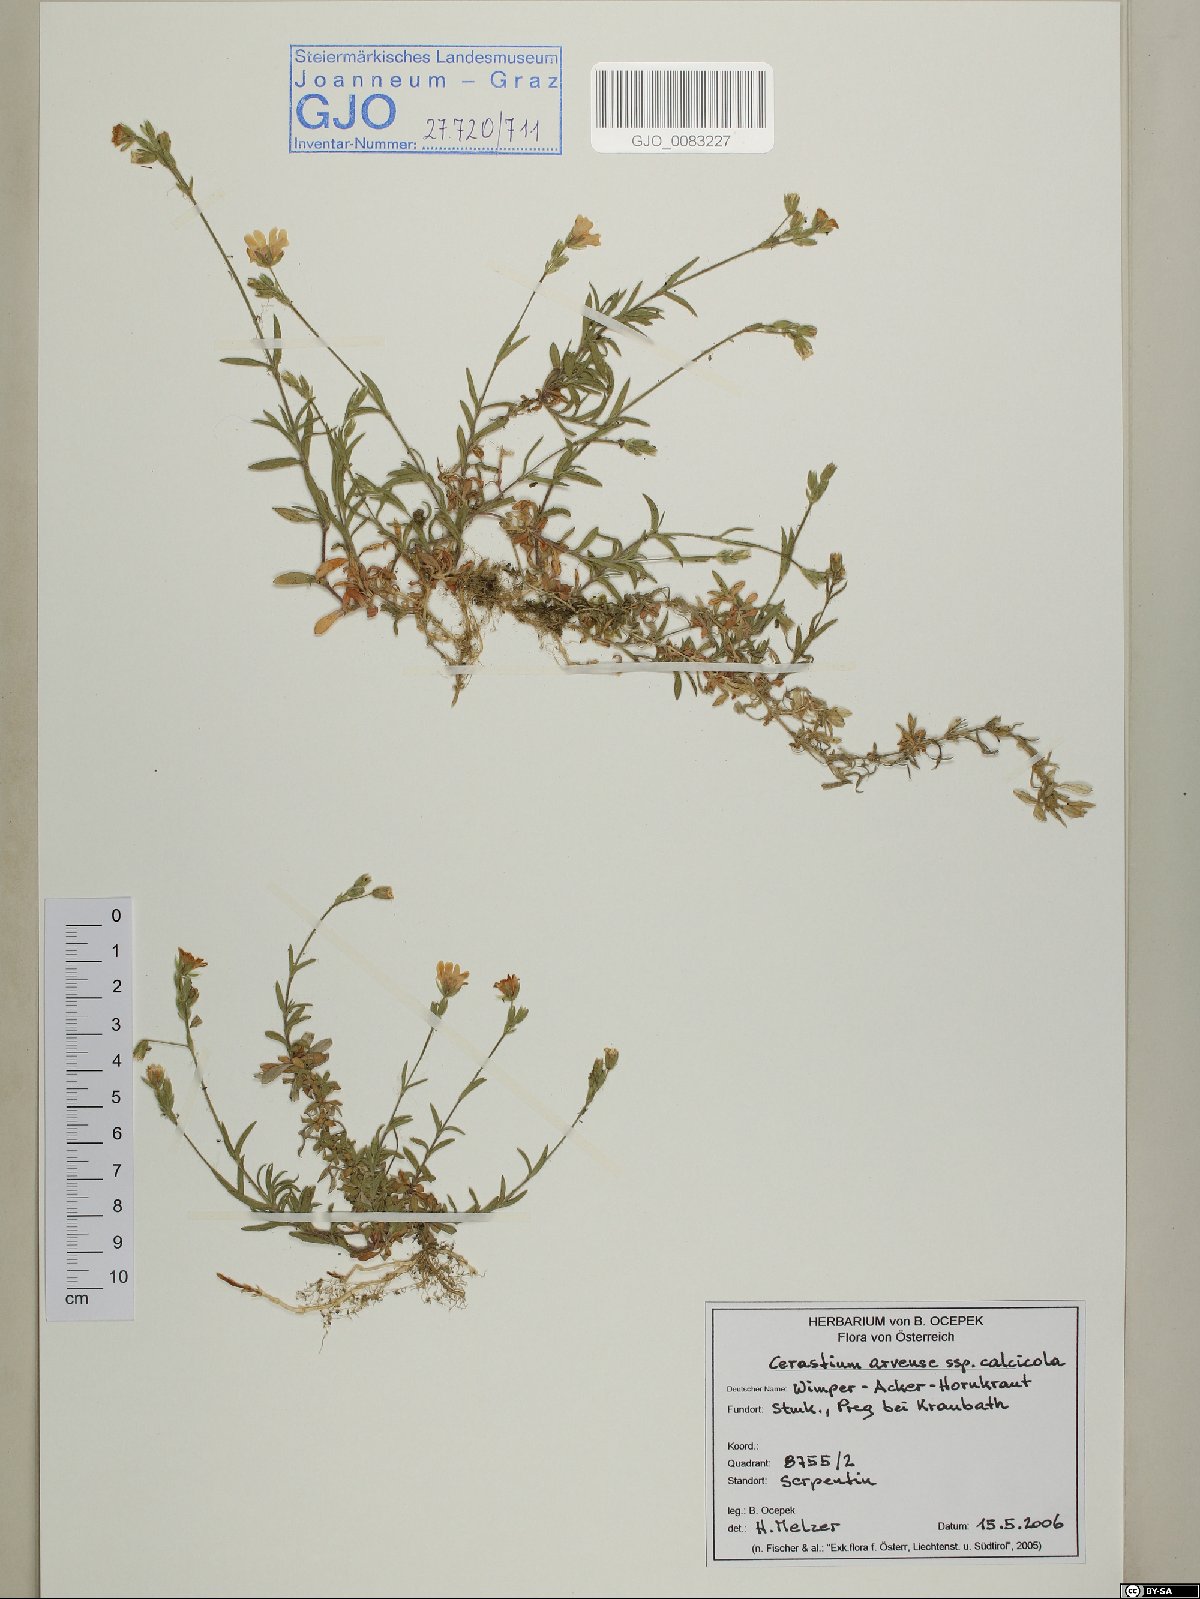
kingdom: Plantae
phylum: Tracheophyta
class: Magnoliopsida
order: Caryophyllales
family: Caryophyllaceae
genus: Cerastium
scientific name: Cerastium arvense
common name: Field mouse-ear
